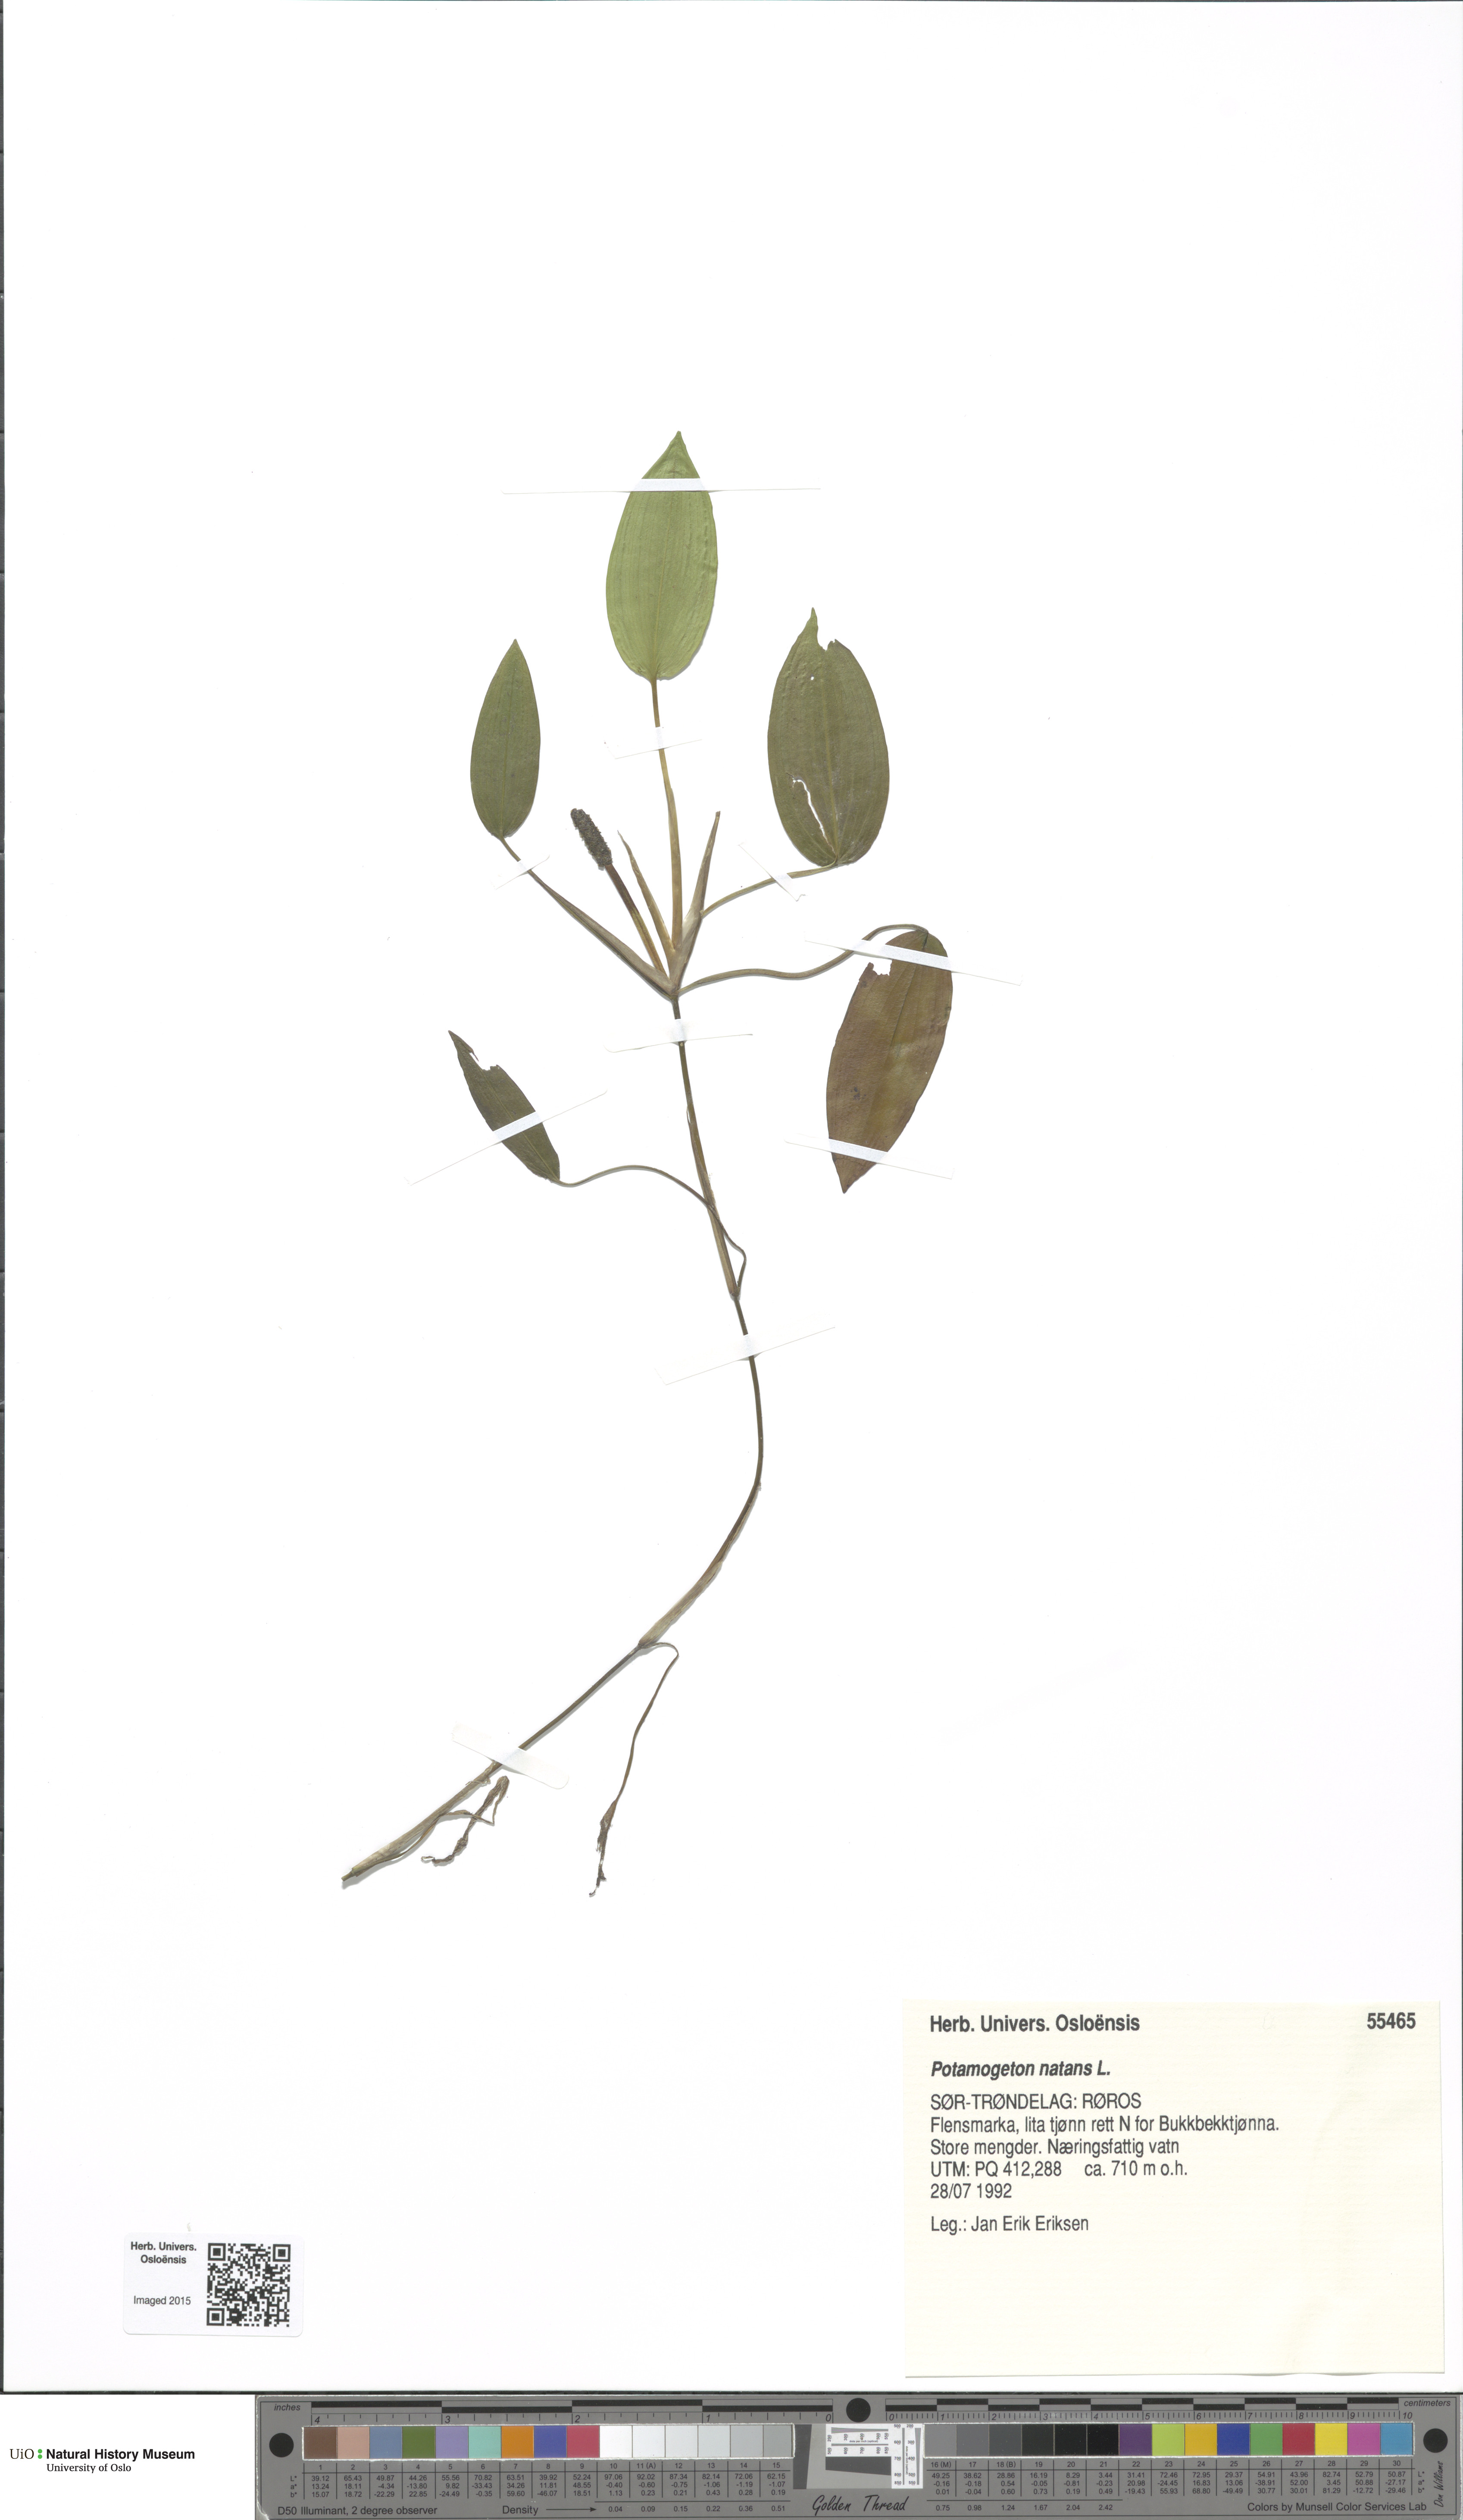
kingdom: Plantae
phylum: Tracheophyta
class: Liliopsida
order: Alismatales
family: Potamogetonaceae
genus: Potamogeton
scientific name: Potamogeton natans
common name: Broad-leaved pondweed
